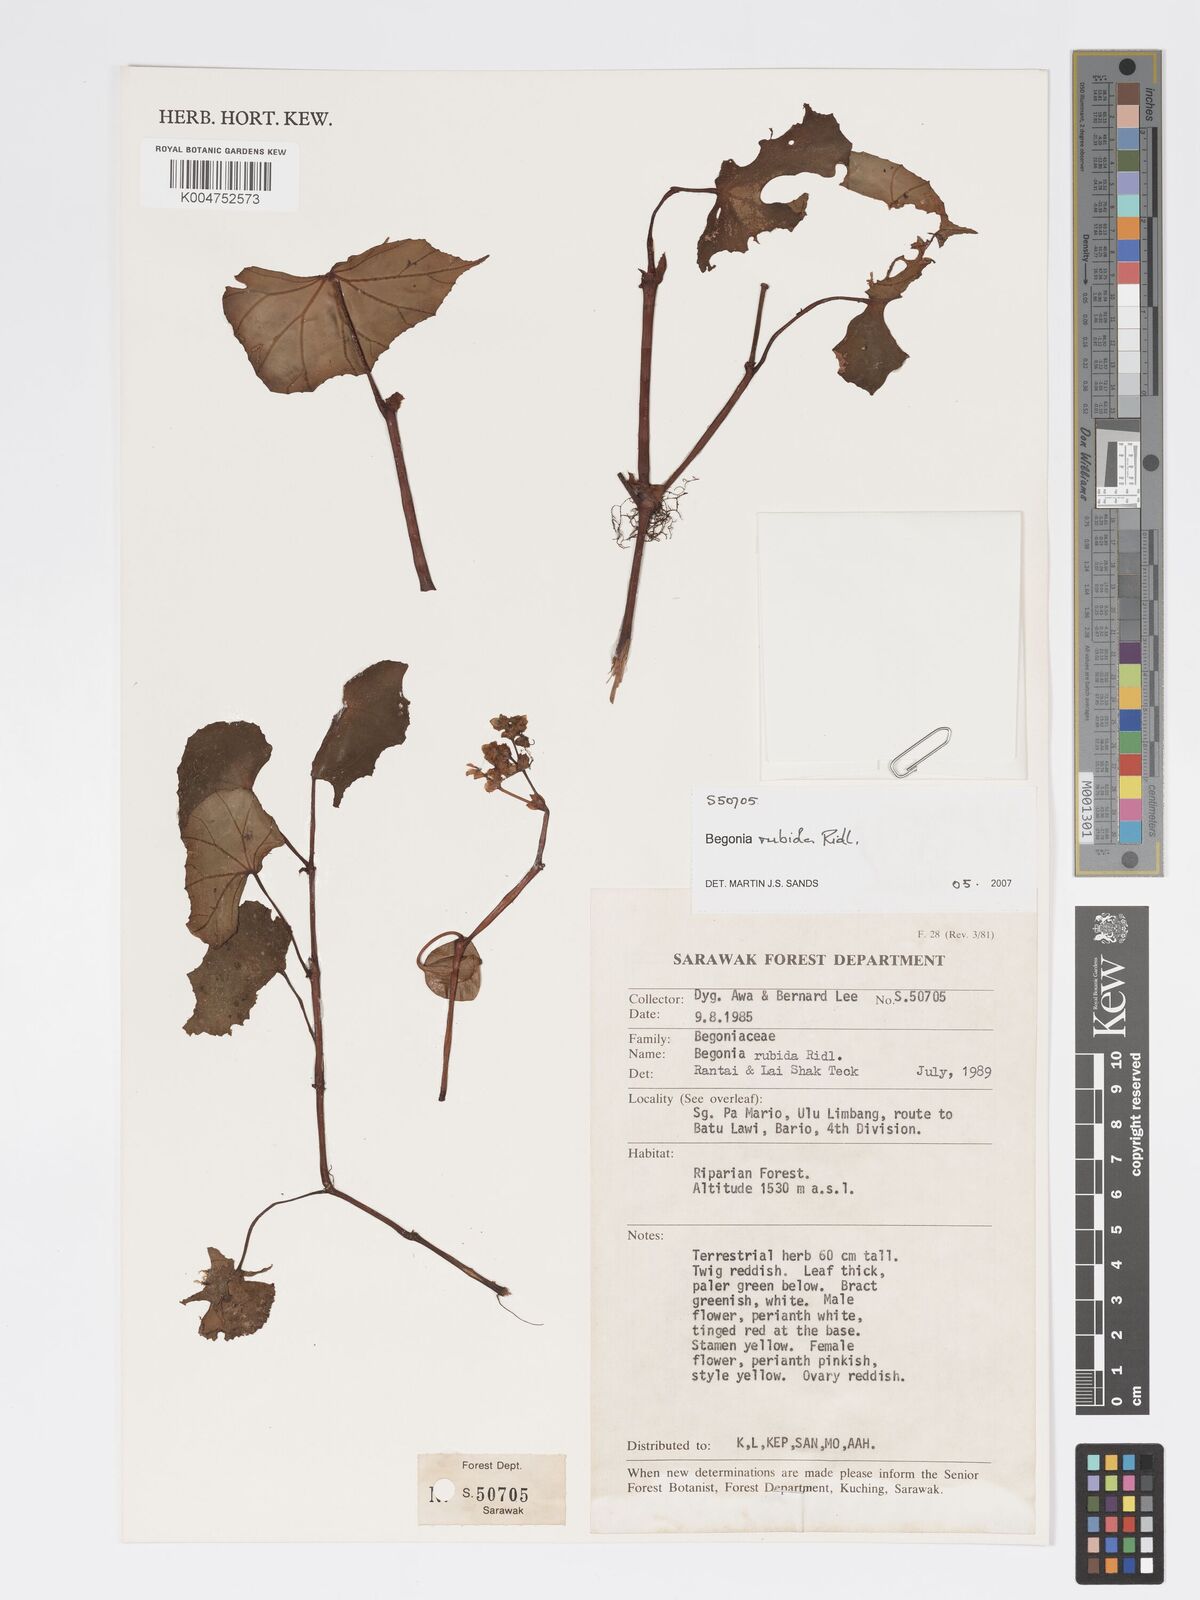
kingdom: Plantae
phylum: Tracheophyta
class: Magnoliopsida
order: Cucurbitales
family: Begoniaceae
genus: Begonia
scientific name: Begonia rubida
